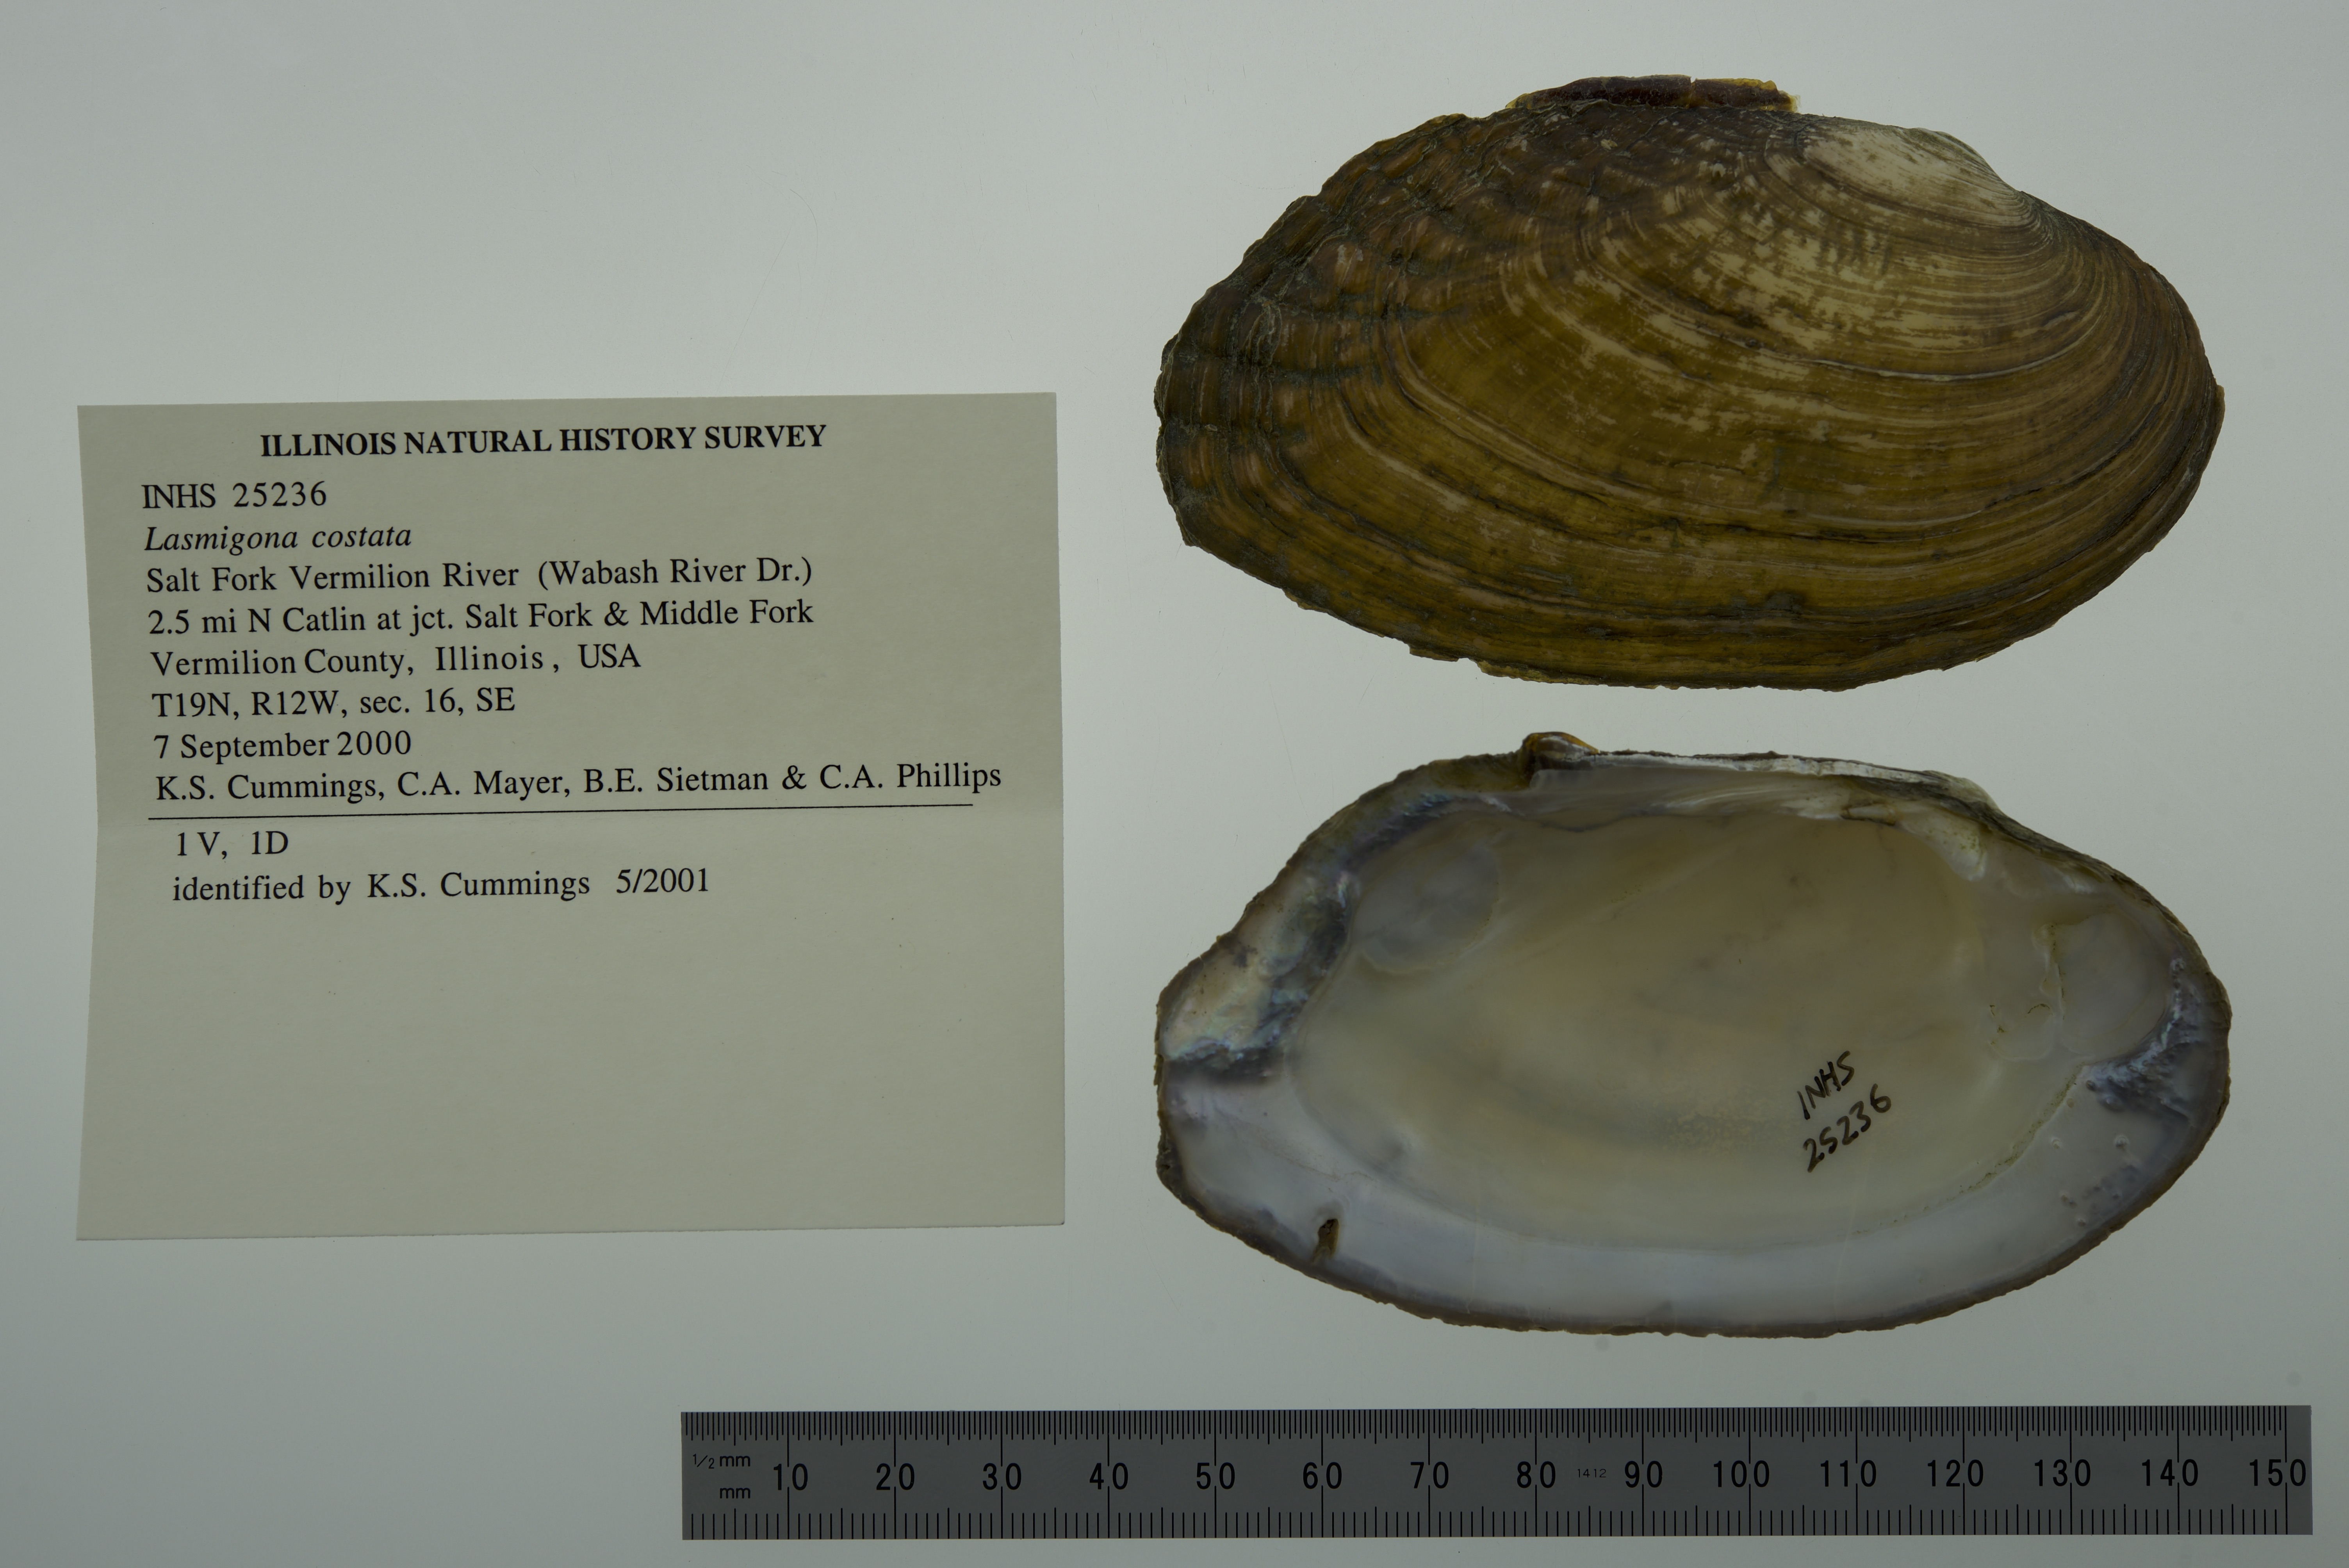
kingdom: Animalia
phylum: Mollusca
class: Bivalvia
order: Unionida
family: Unionidae
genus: Lasmigona
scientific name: Lasmigona costata
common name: Flutedshell
